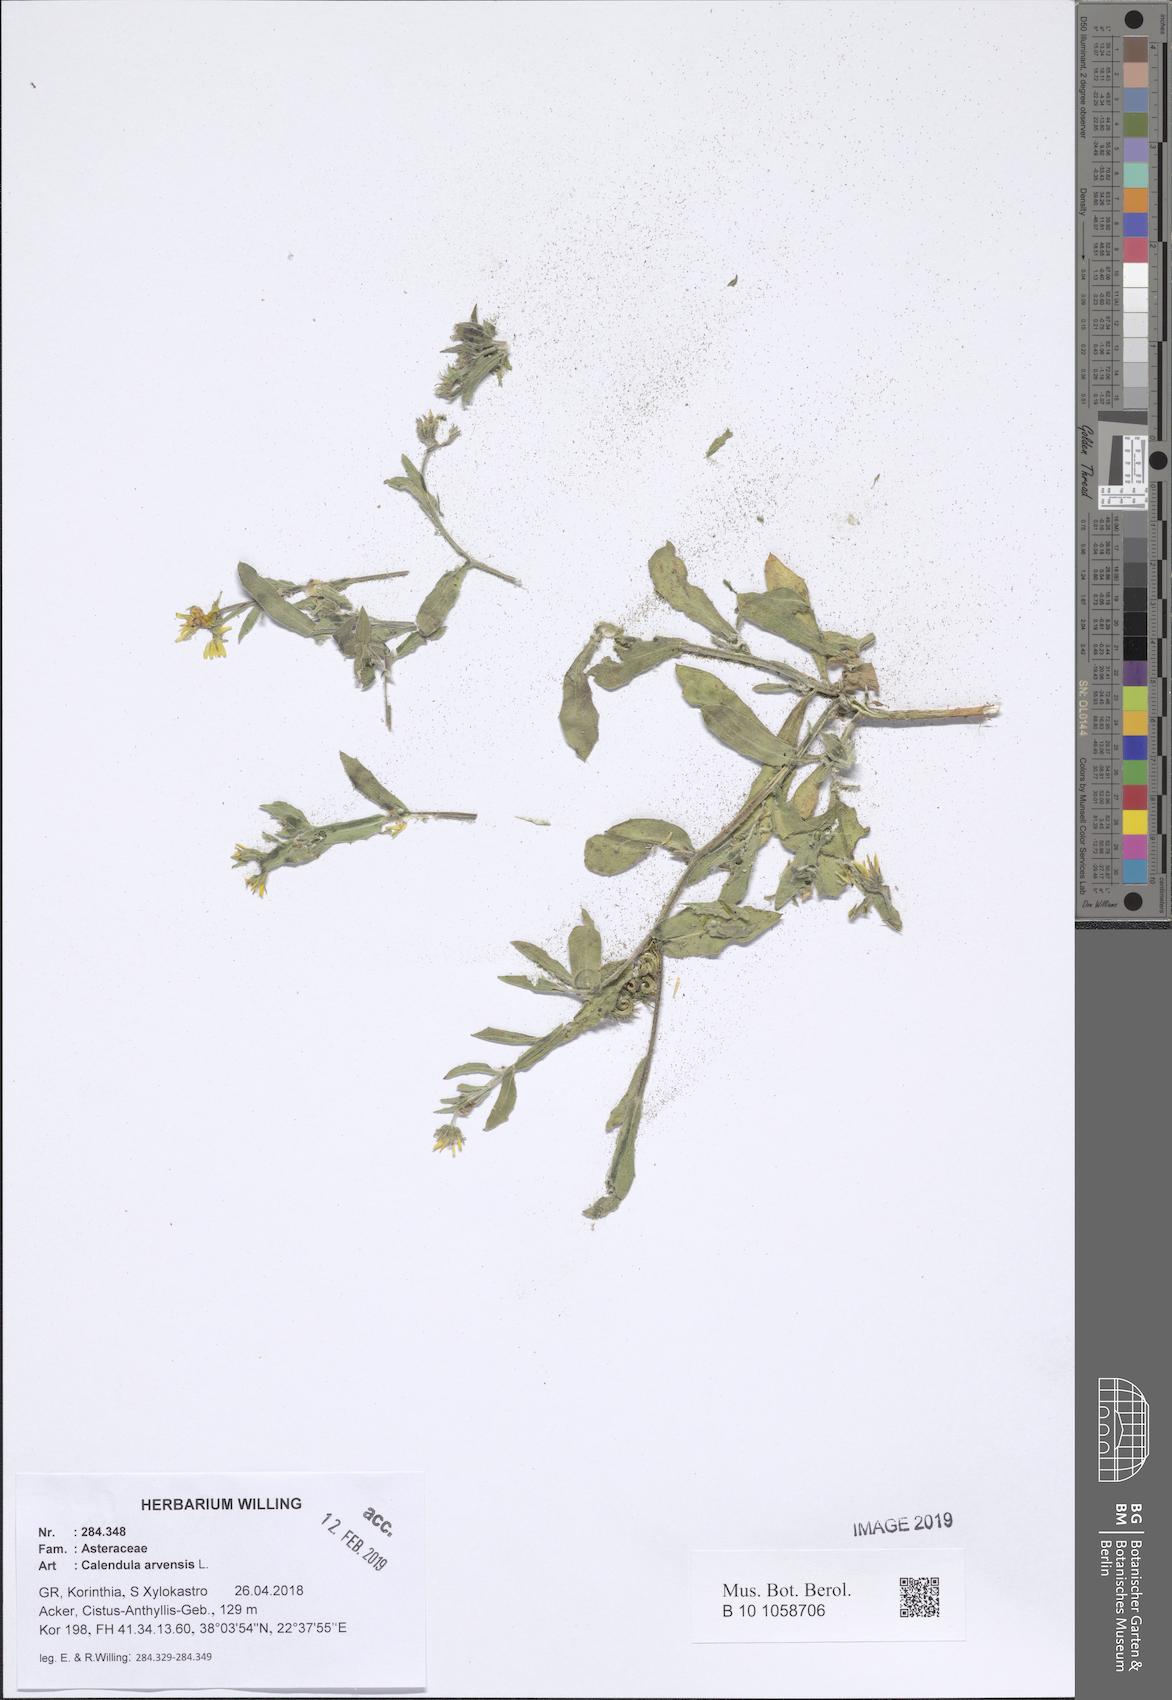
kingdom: Plantae
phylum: Tracheophyta
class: Magnoliopsida
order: Asterales
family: Asteraceae
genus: Calendula
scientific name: Calendula arvensis
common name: Field marigold
